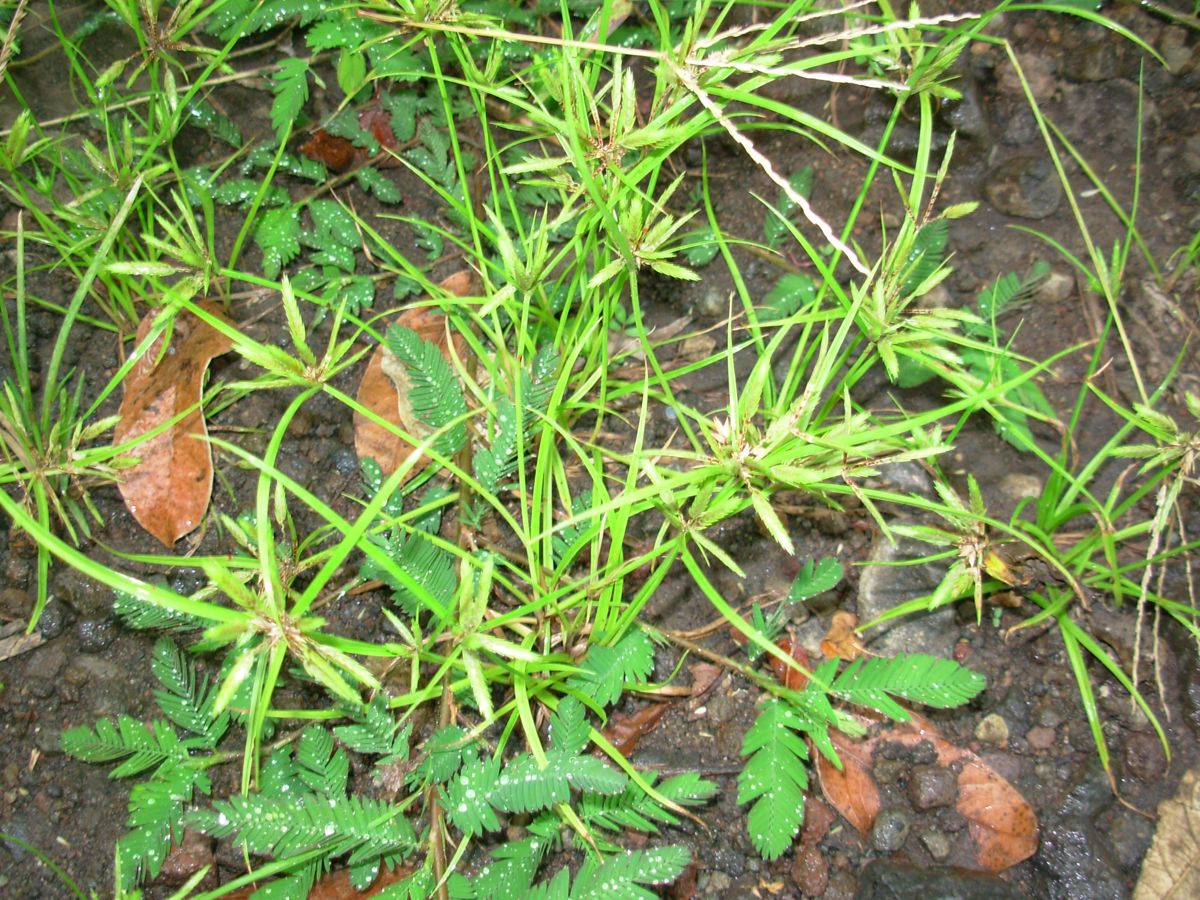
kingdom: Plantae
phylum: Tracheophyta
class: Liliopsida
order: Poales
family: Cyperaceae
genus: Cyperus
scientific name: Cyperus compressus
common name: Poorland flatsedge
